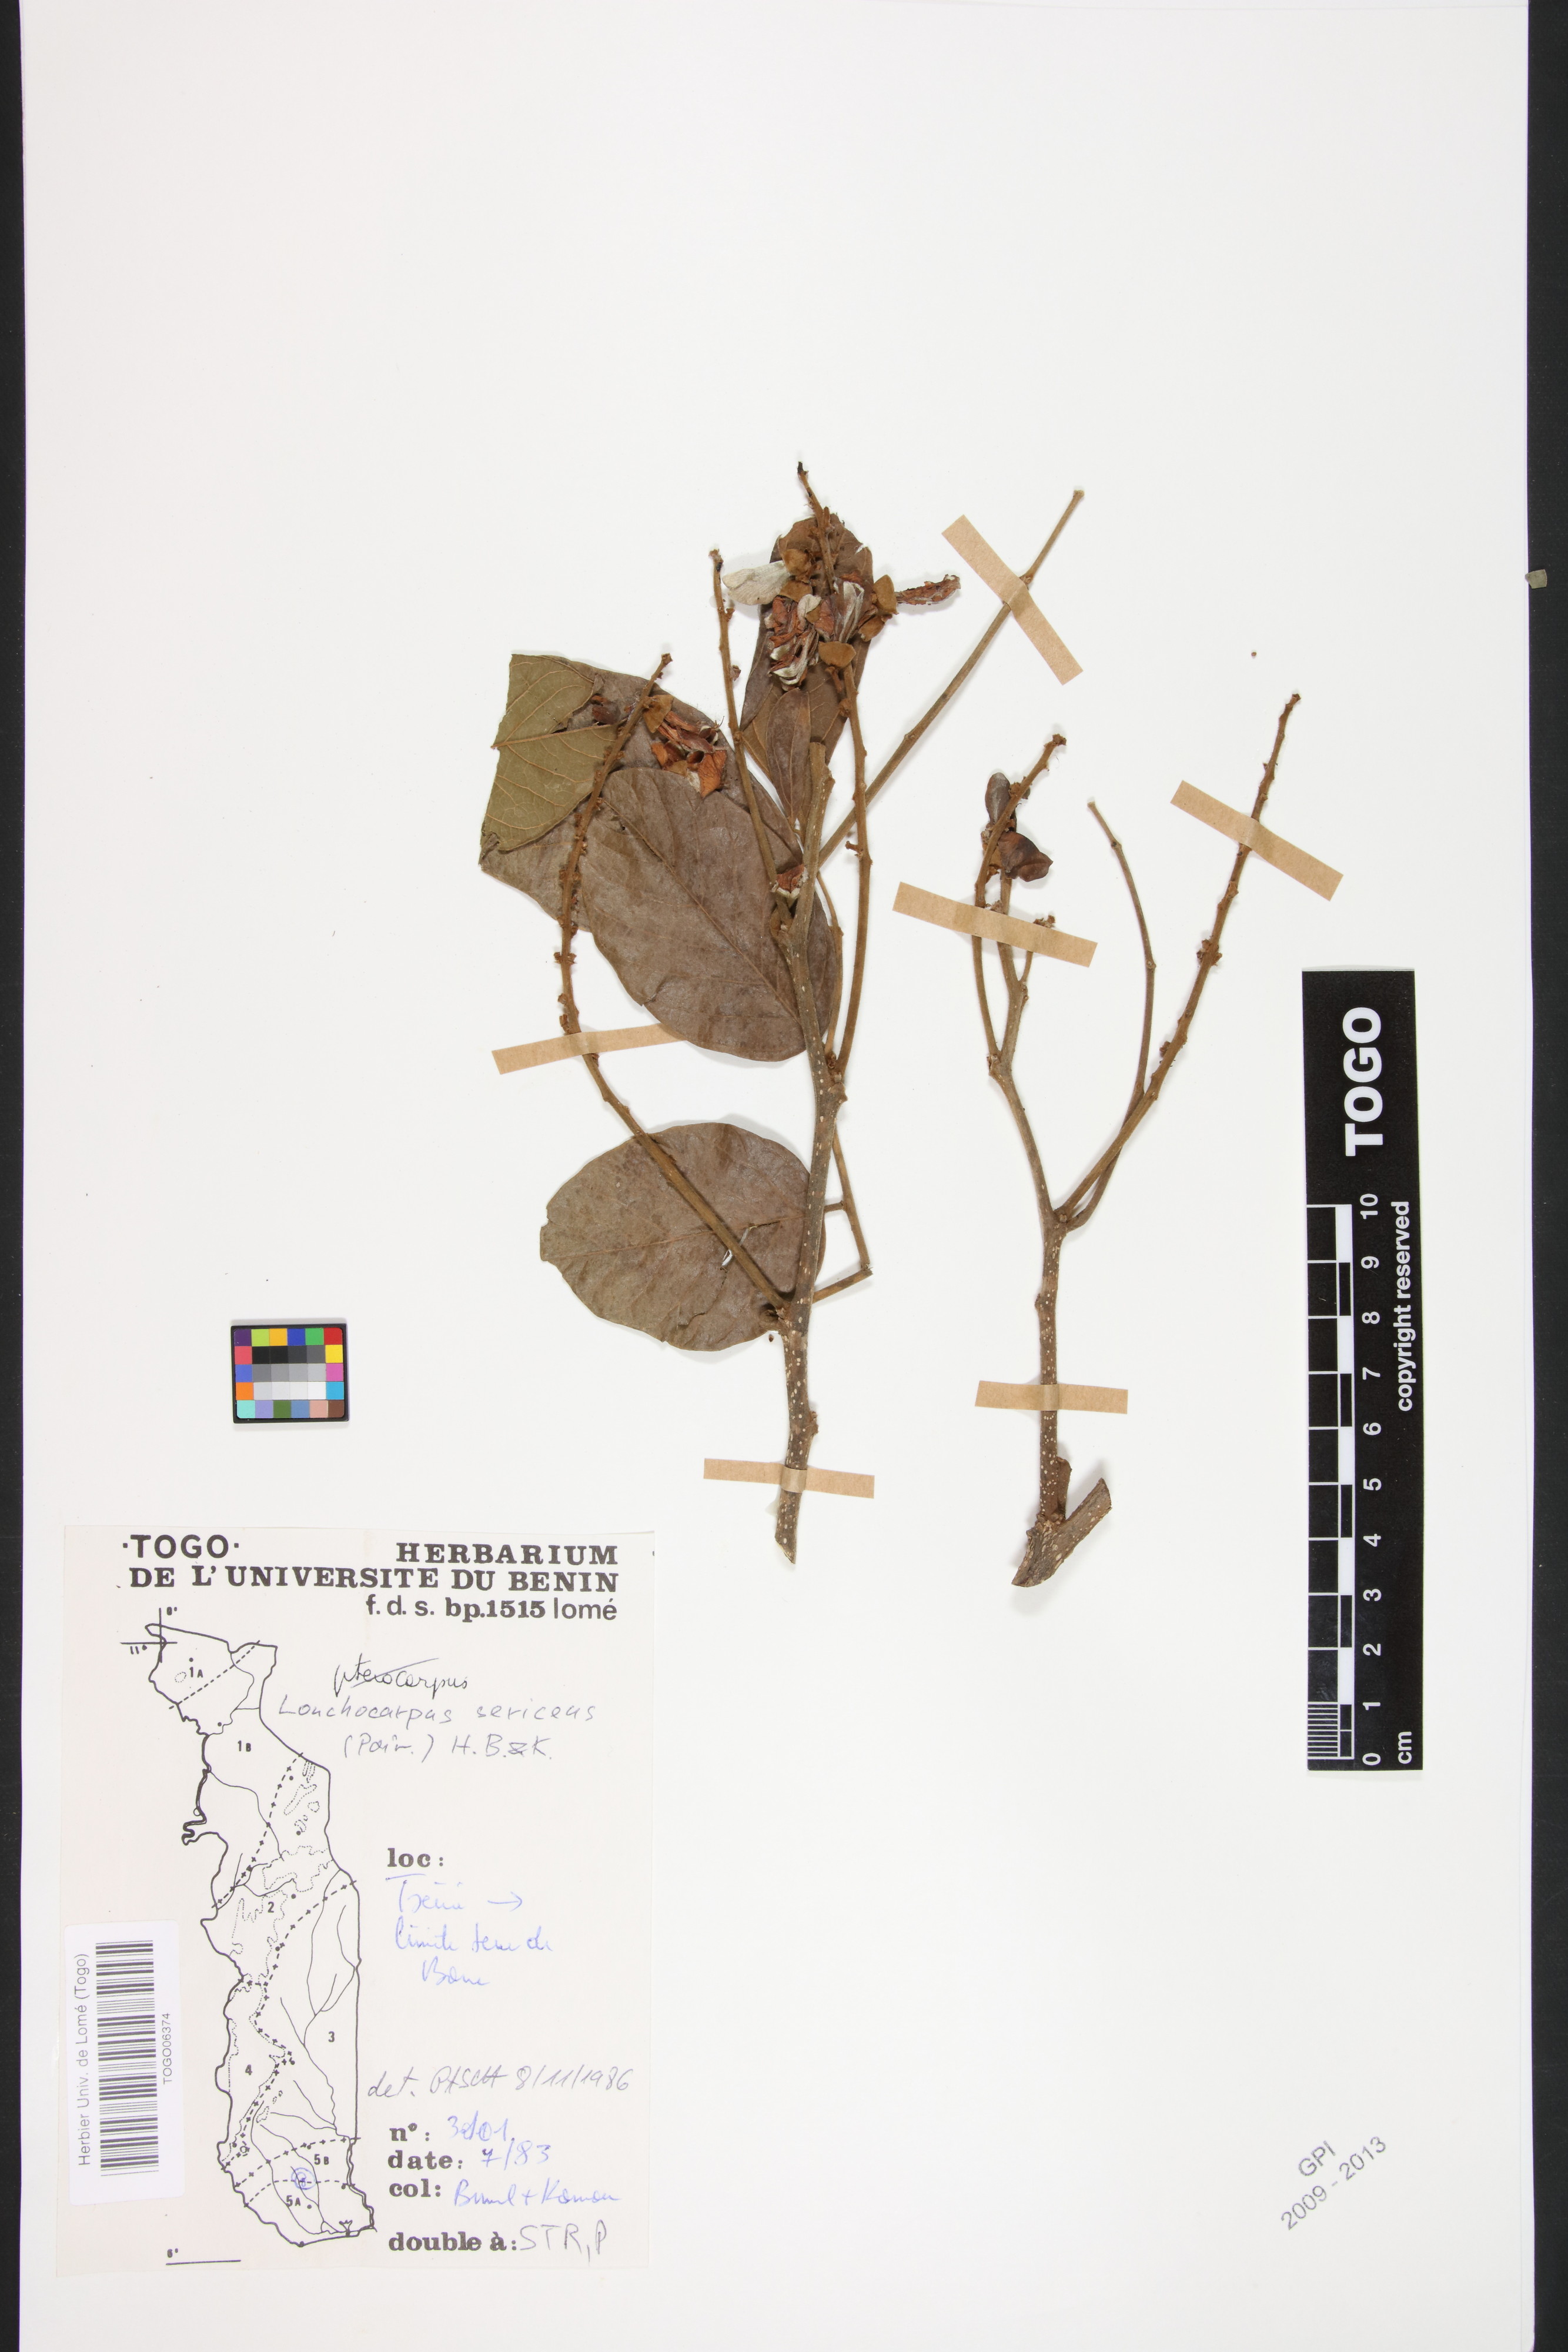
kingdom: Plantae
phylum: Tracheophyta
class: Magnoliopsida
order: Fabales
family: Fabaceae
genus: Lonchocarpus
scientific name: Lonchocarpus sericeus
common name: Savonette
